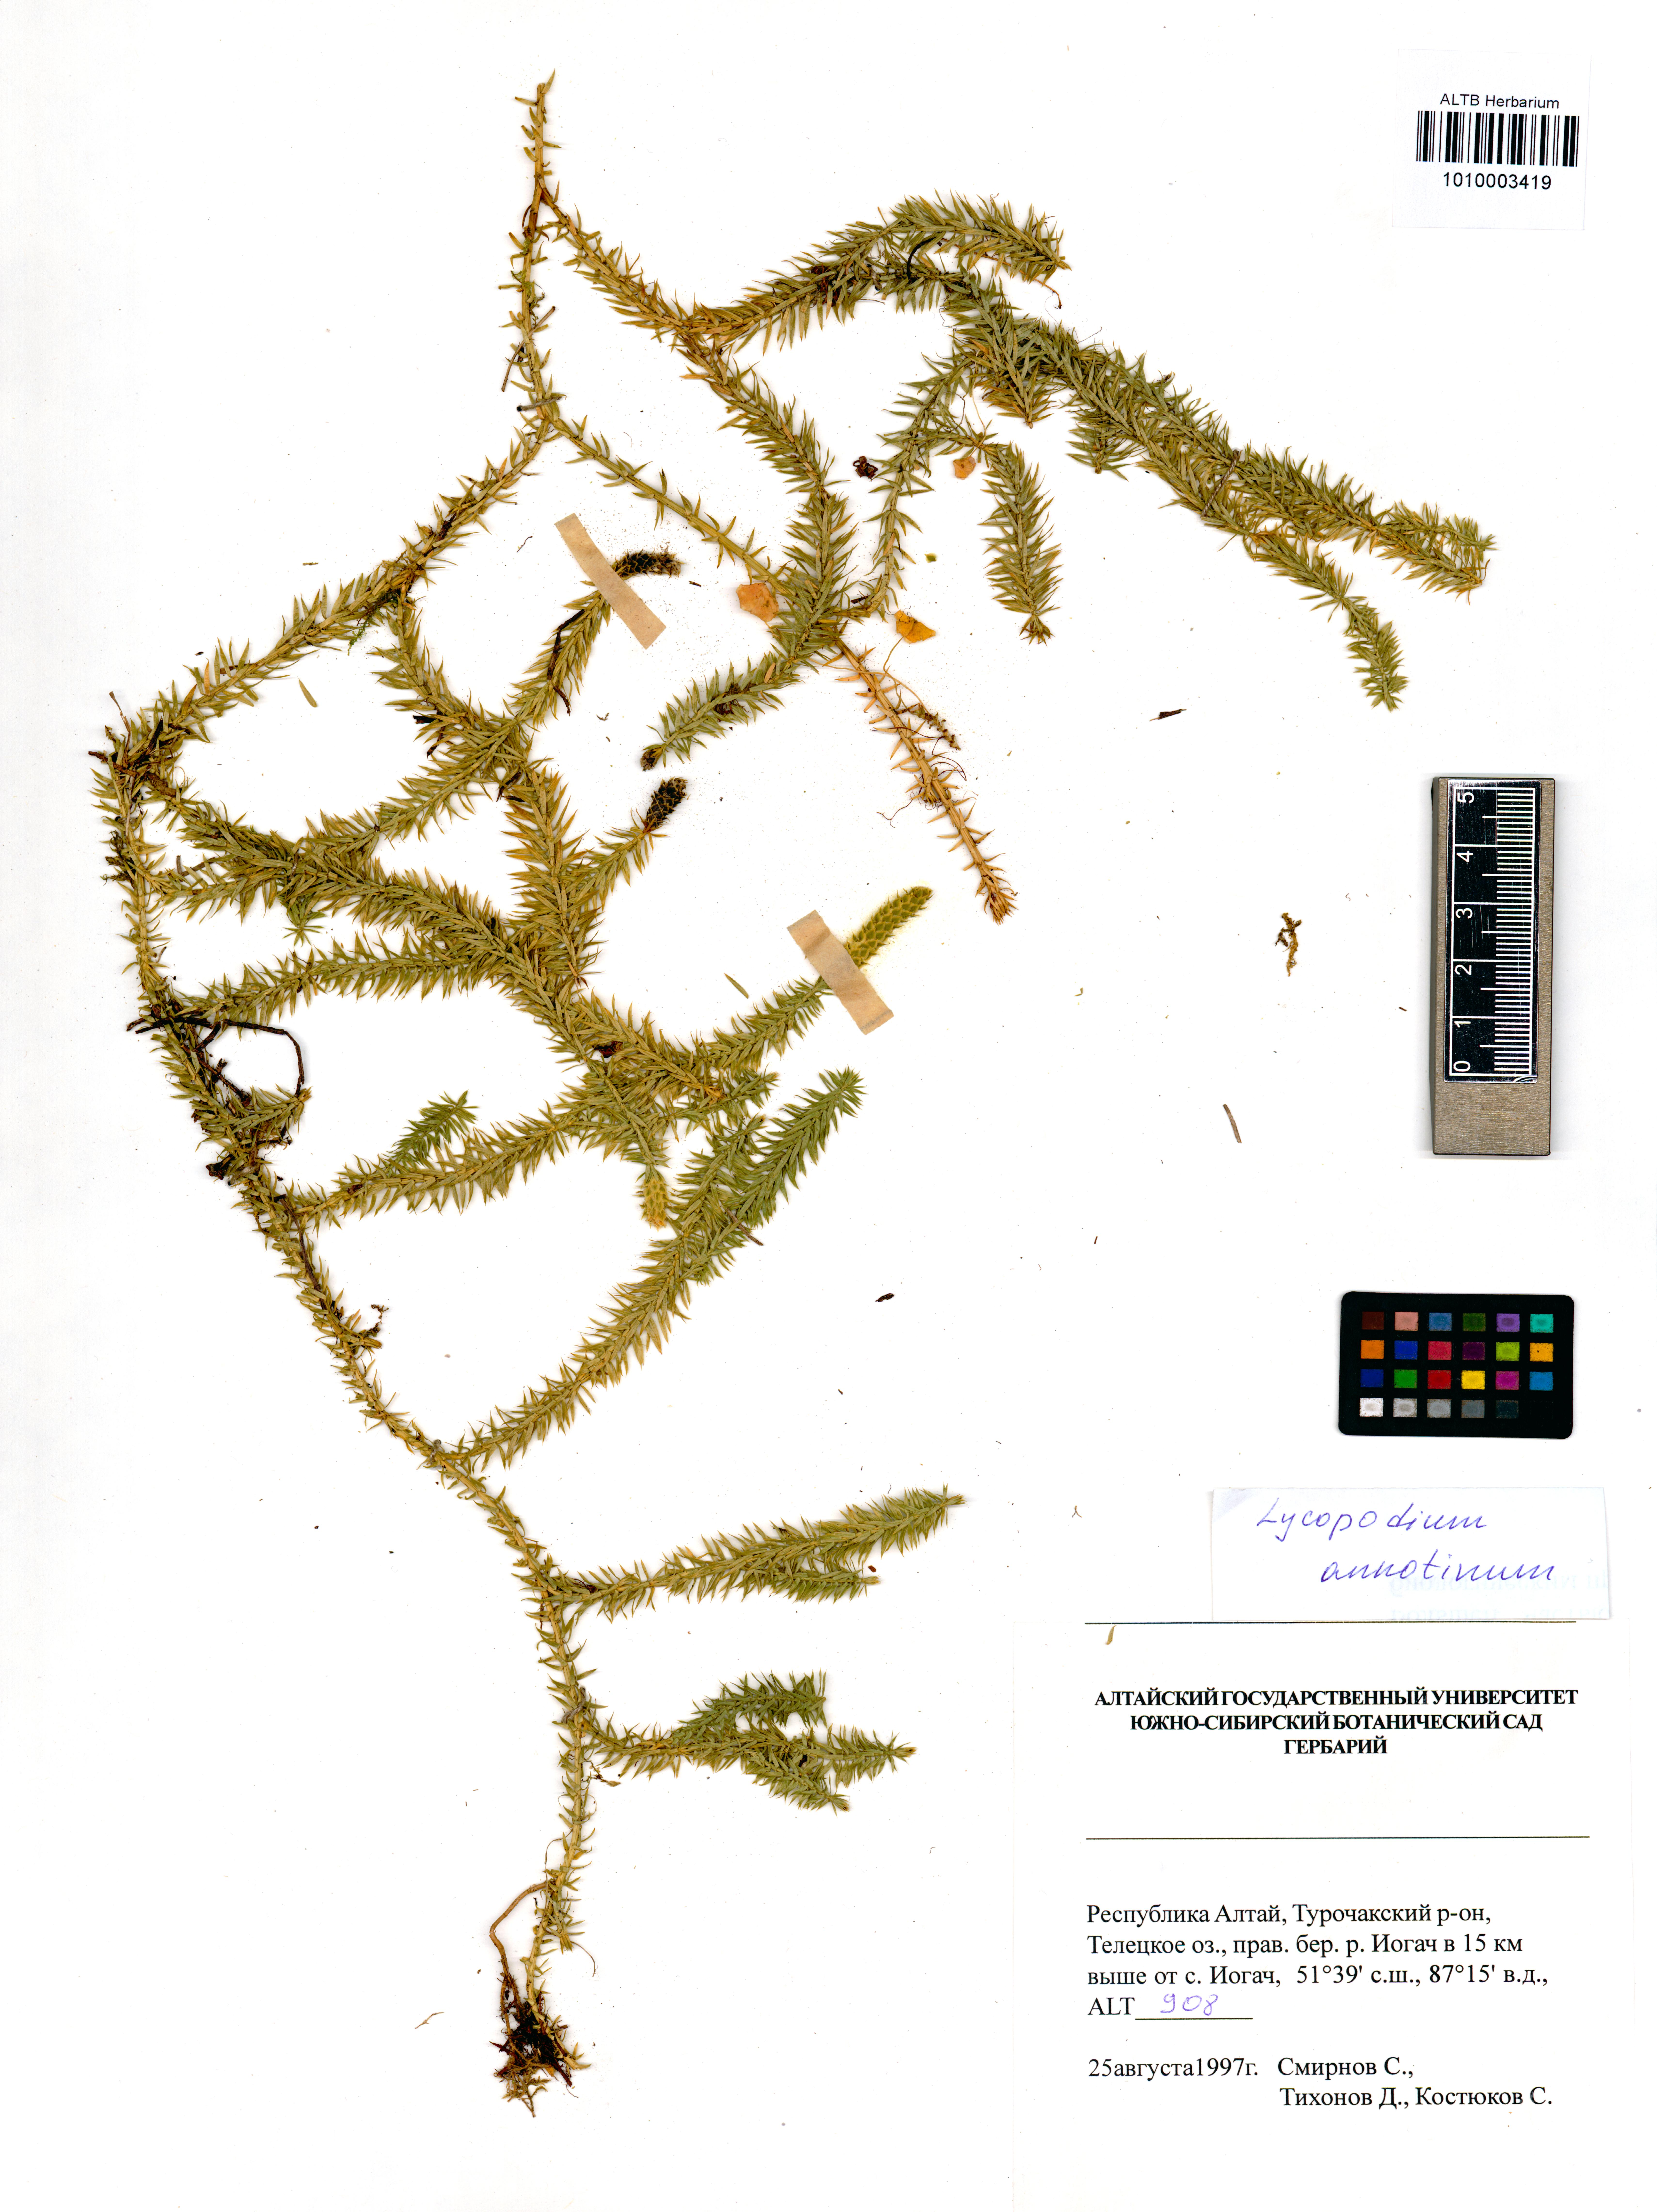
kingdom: Plantae
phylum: Tracheophyta
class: Lycopodiopsida
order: Lycopodiales
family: Lycopodiaceae
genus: Spinulum
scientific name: Spinulum annotinum
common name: Interrupted club-moss
